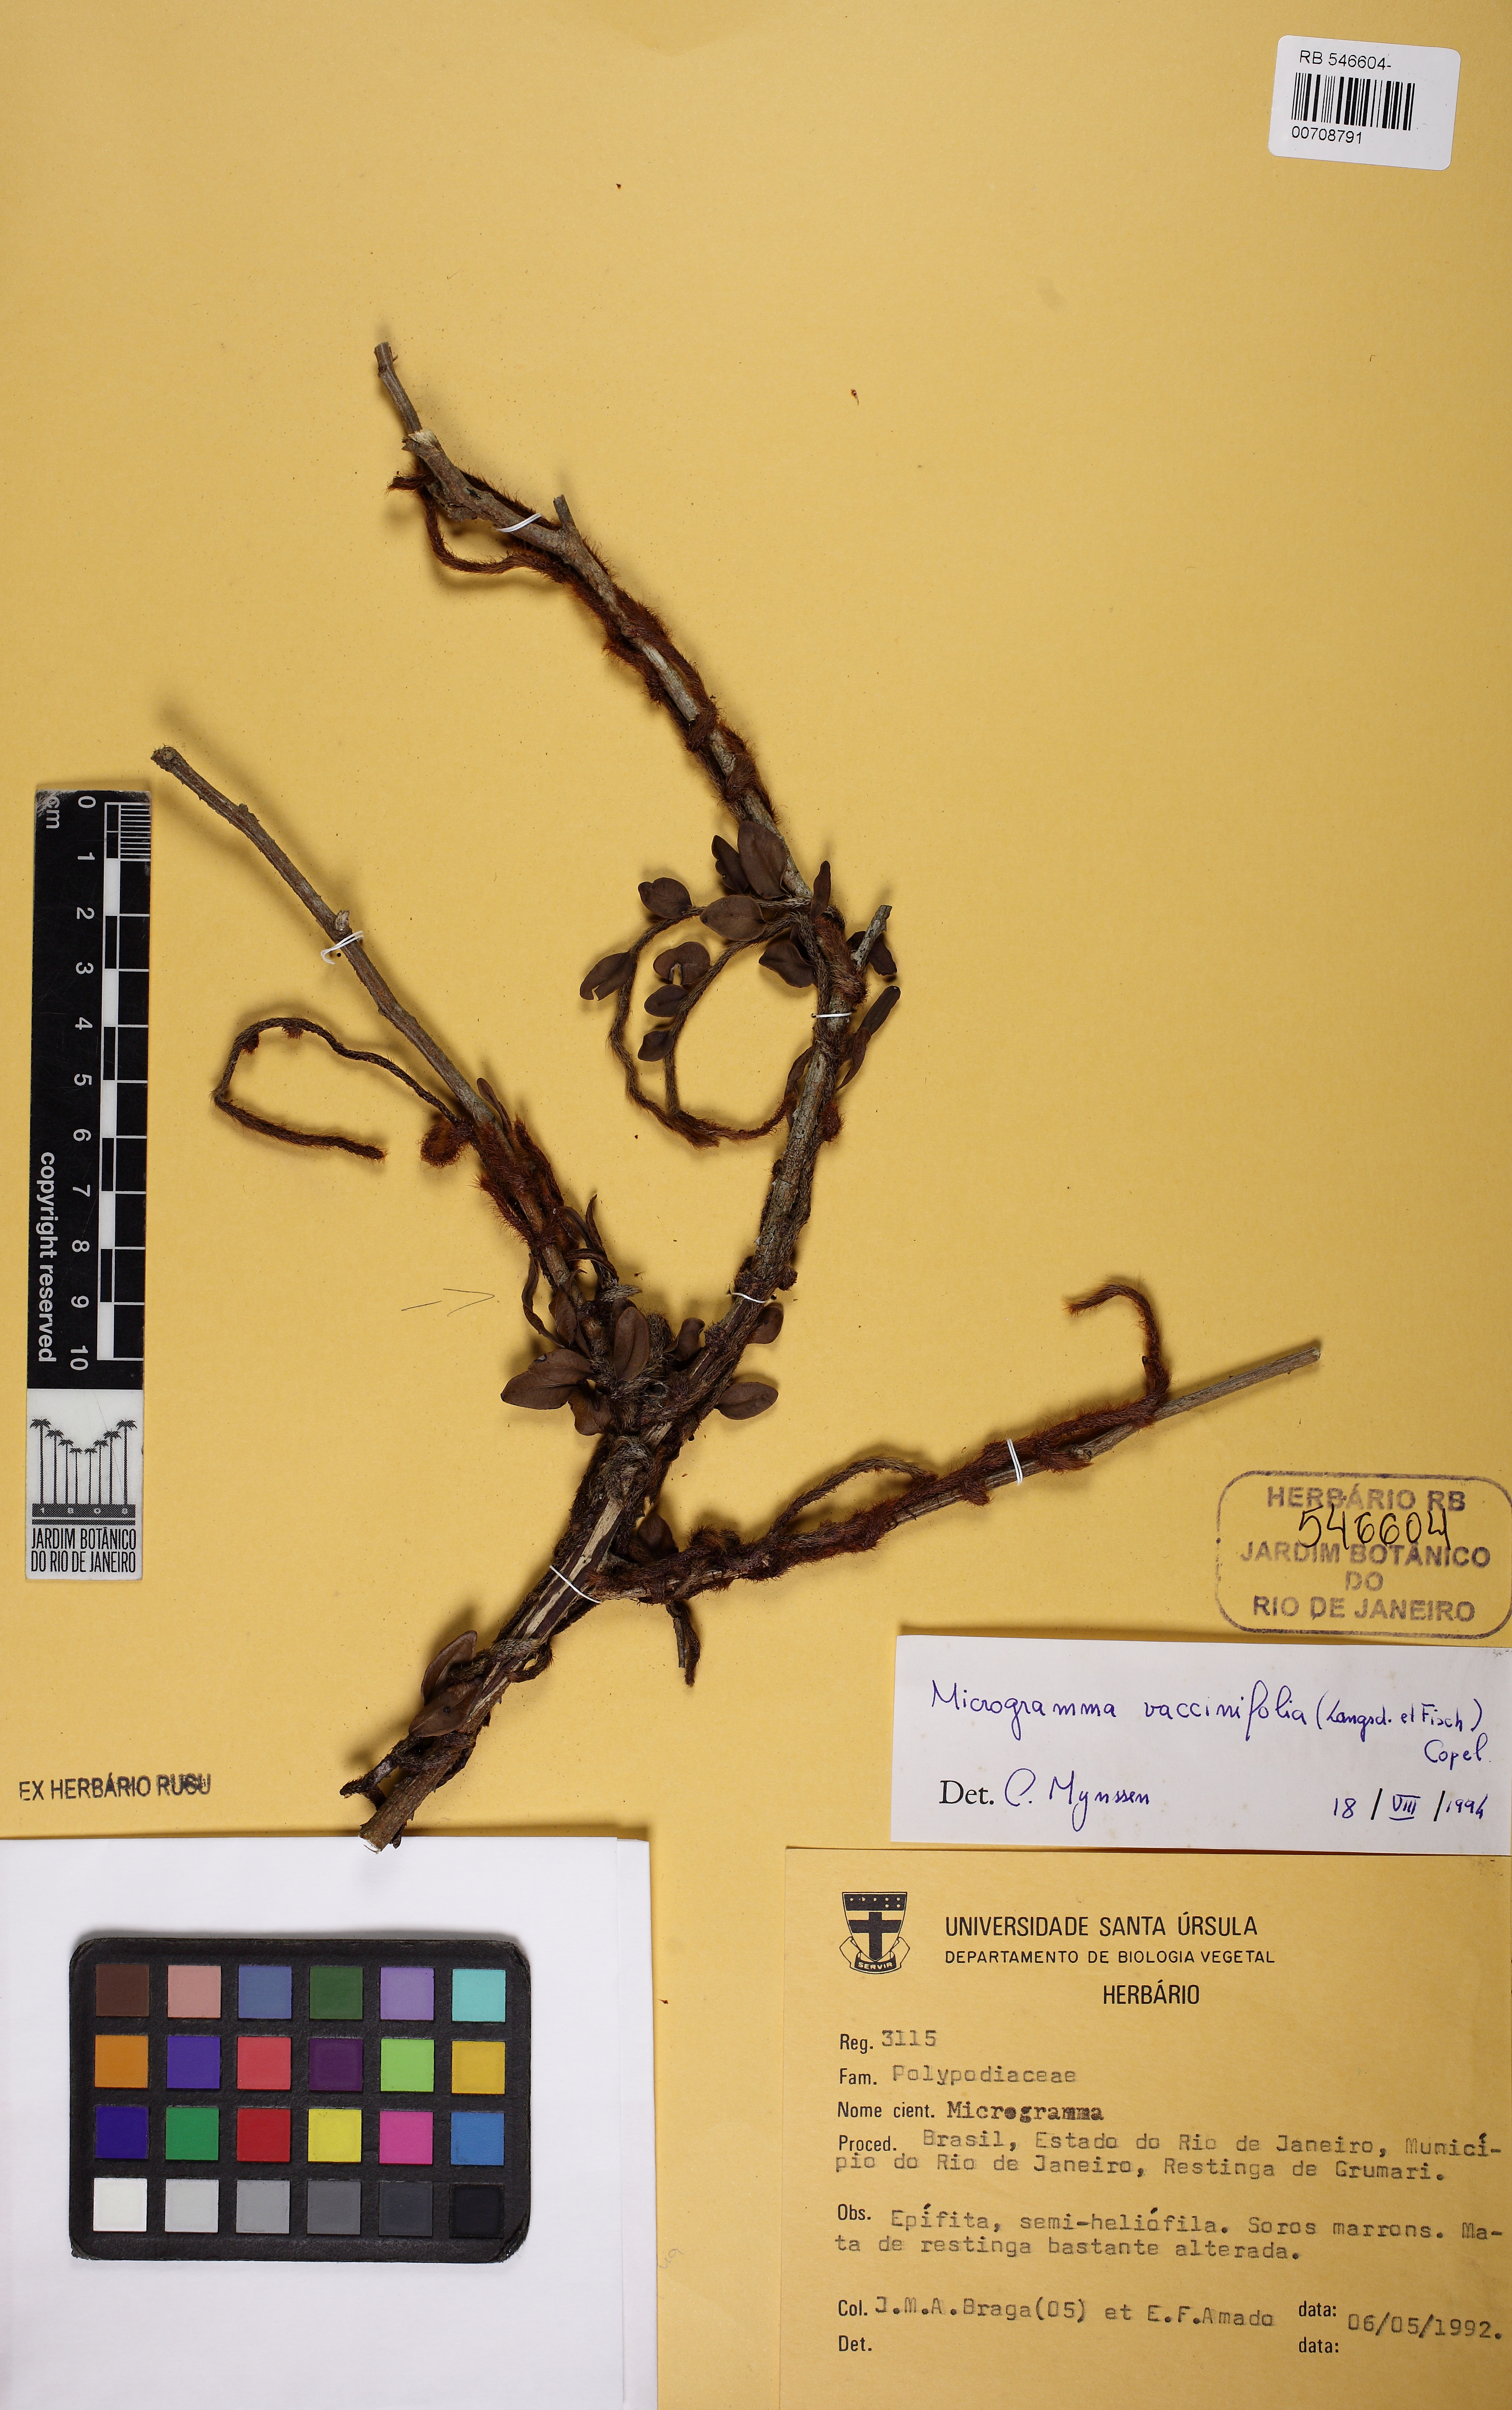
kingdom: Plantae
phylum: Tracheophyta
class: Polypodiopsida
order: Polypodiales
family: Polypodiaceae
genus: Microgramma
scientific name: Microgramma vaccinifolia
